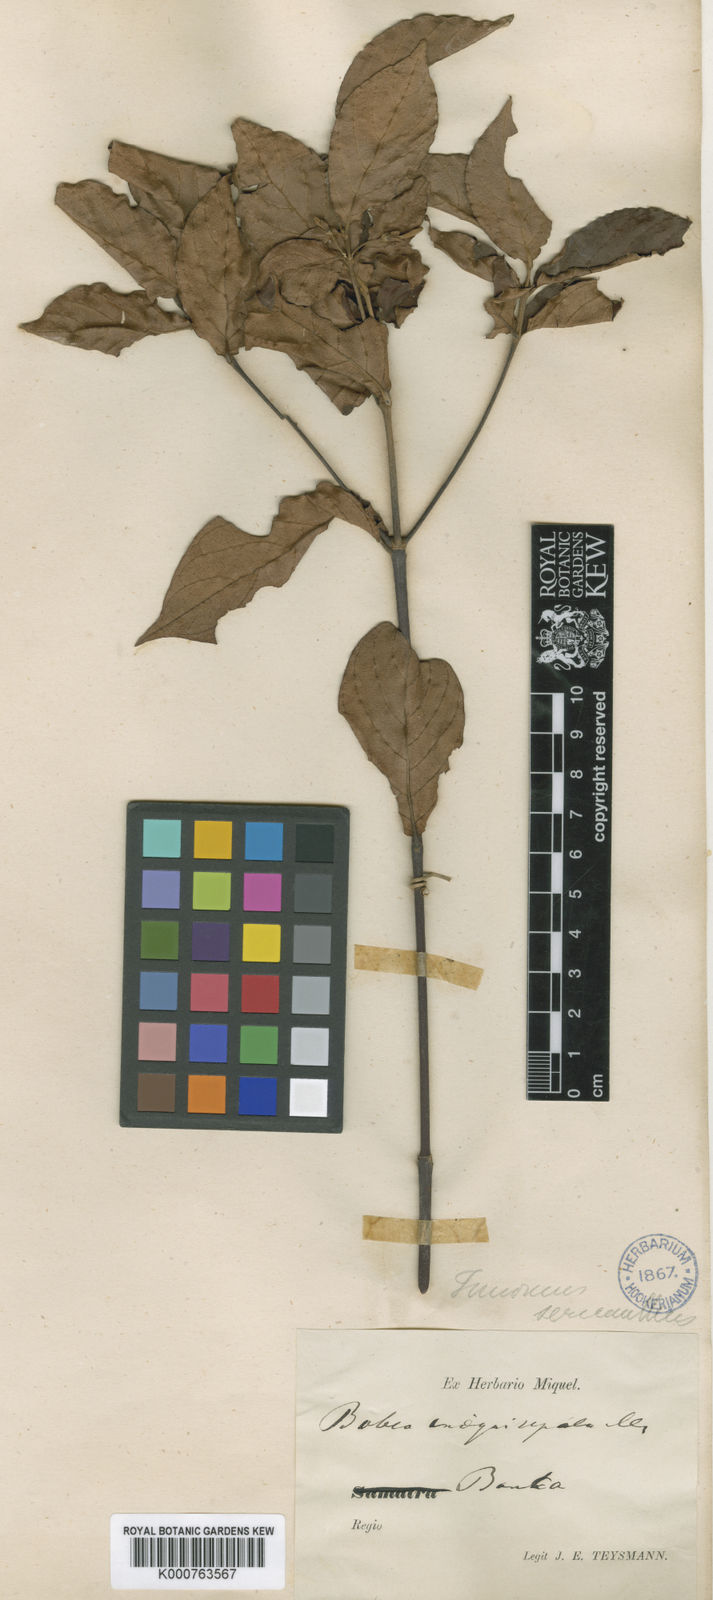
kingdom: Plantae
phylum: Tracheophyta
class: Magnoliopsida
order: Gentianales
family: Rubiaceae
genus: Timonius
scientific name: Timonius flavescens
